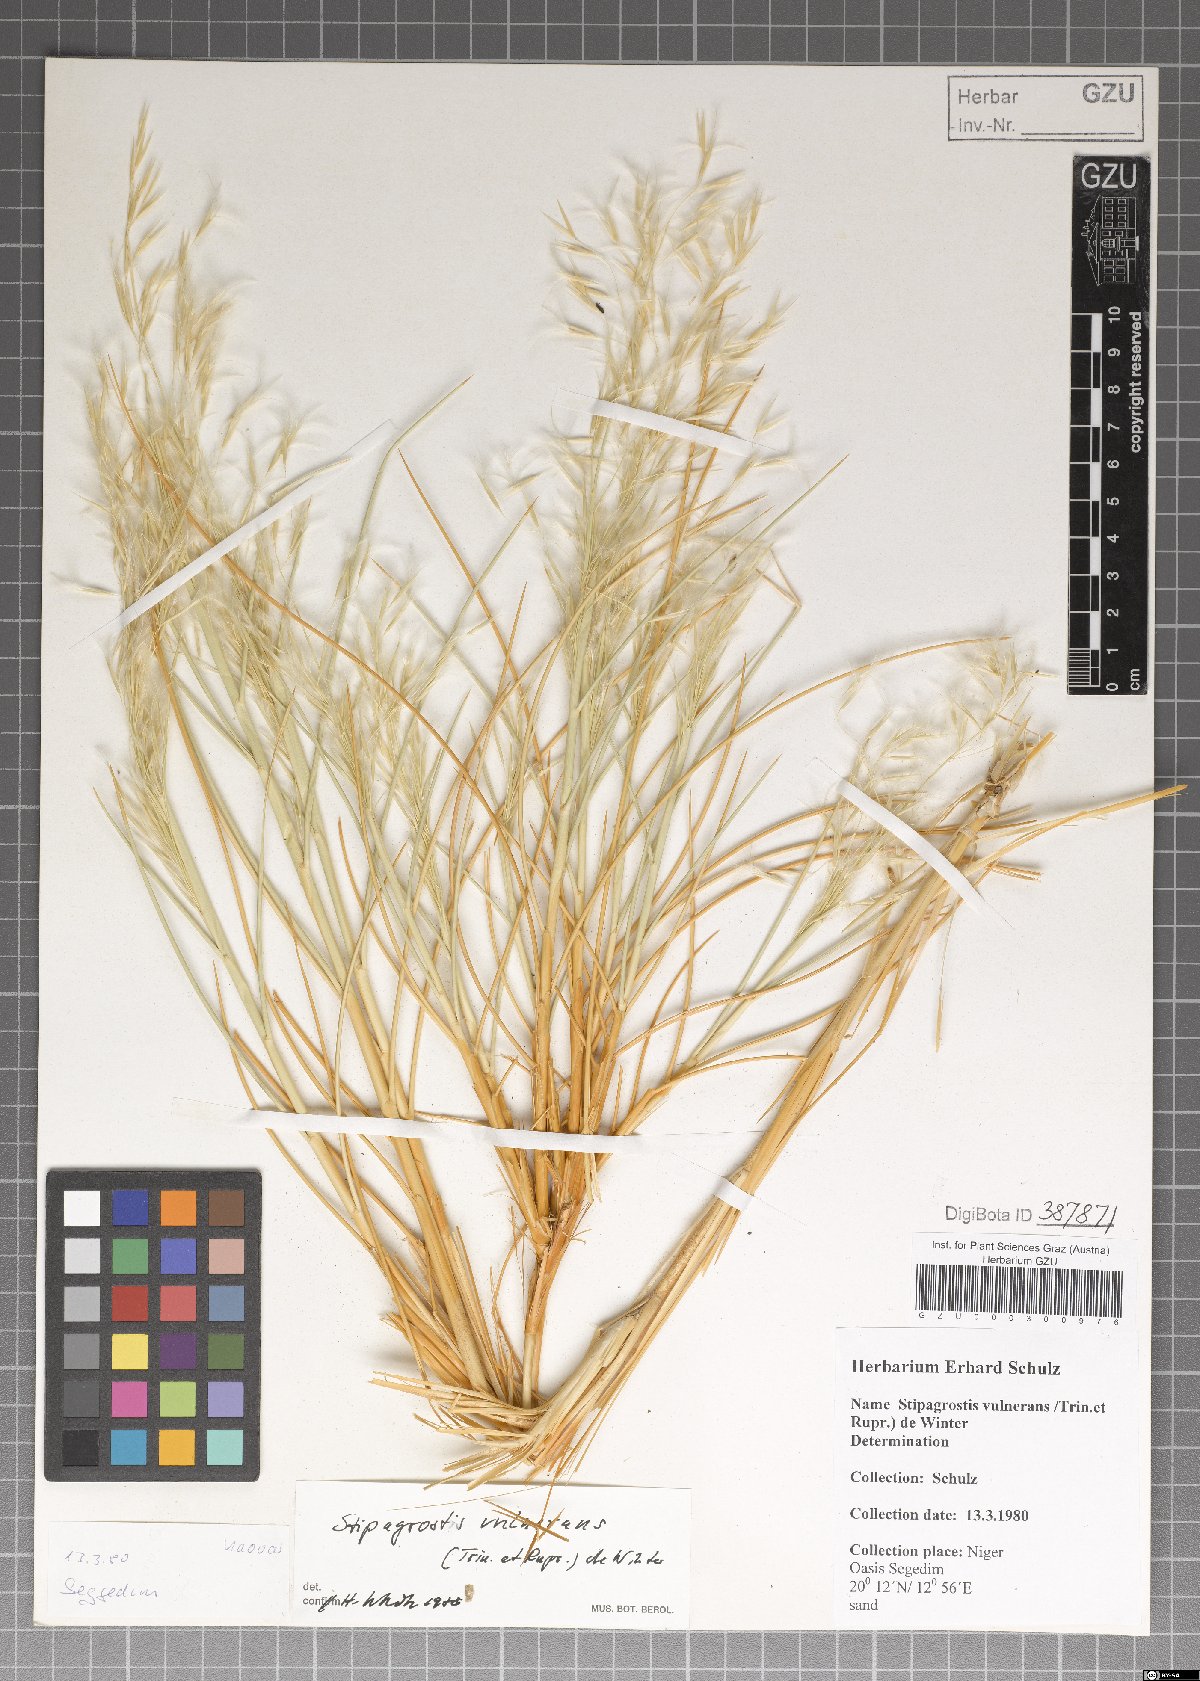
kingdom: Plantae
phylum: Tracheophyta
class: Liliopsida
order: Poales
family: Poaceae
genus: Stipagrostis
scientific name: Stipagrostis vulnerans
